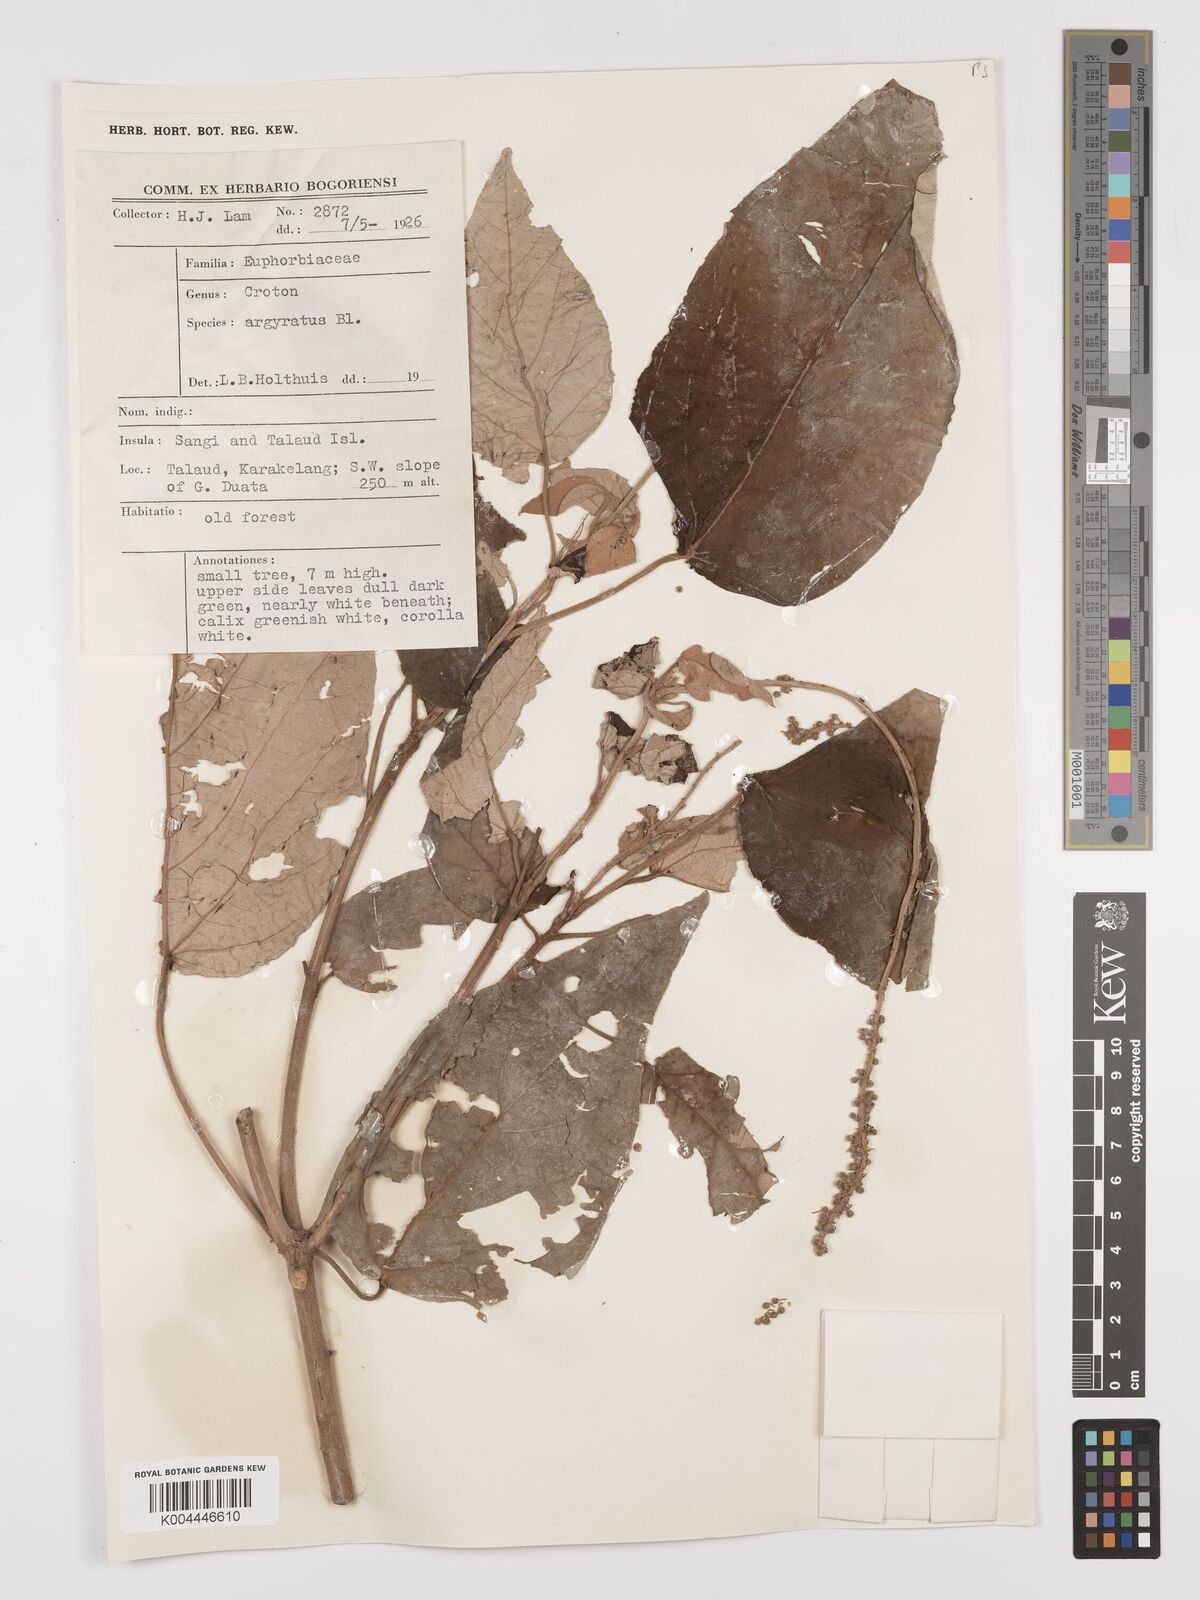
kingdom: Plantae
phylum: Tracheophyta
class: Magnoliopsida
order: Malpighiales
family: Euphorbiaceae
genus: Croton
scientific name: Croton argyratus
